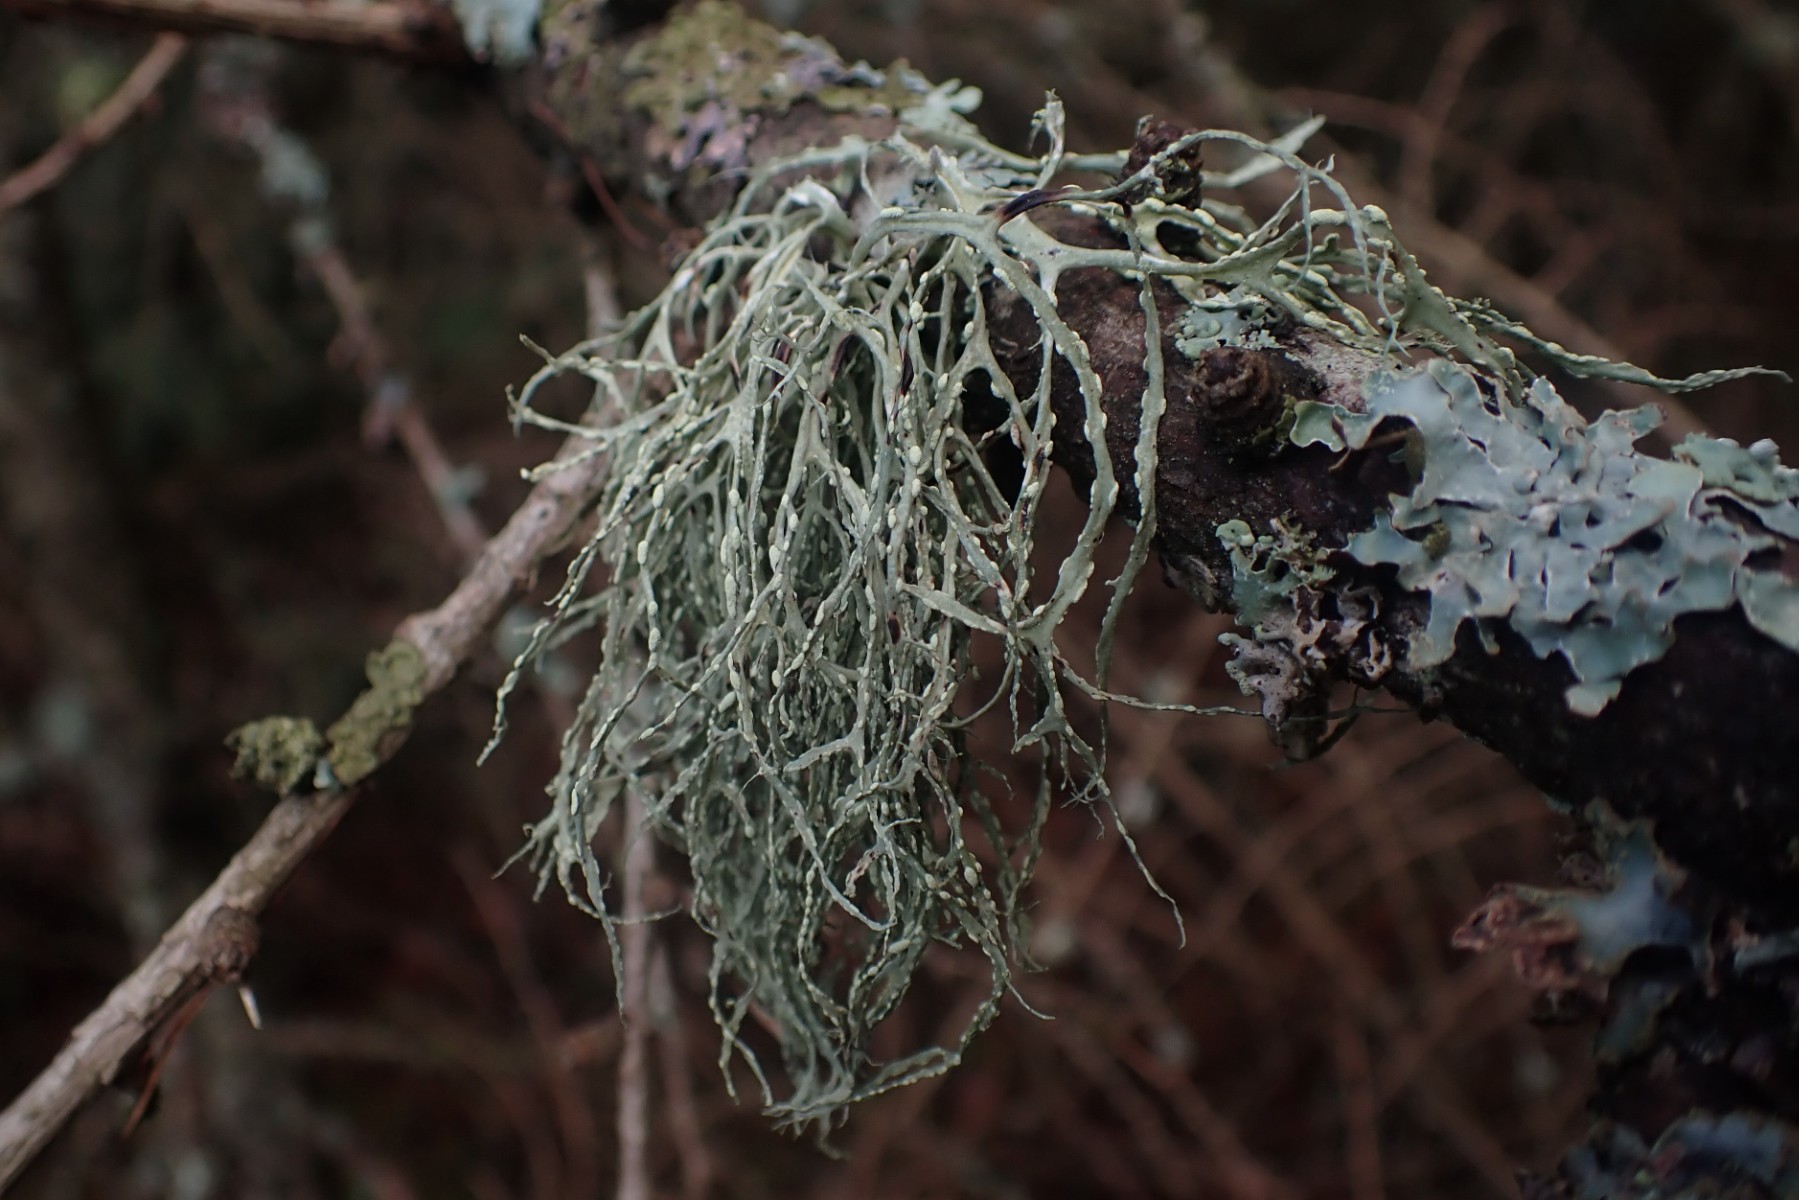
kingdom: Fungi
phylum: Ascomycota
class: Lecanoromycetes
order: Lecanorales
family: Ramalinaceae
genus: Ramalina
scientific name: Ramalina farinacea
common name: melet grenlav
